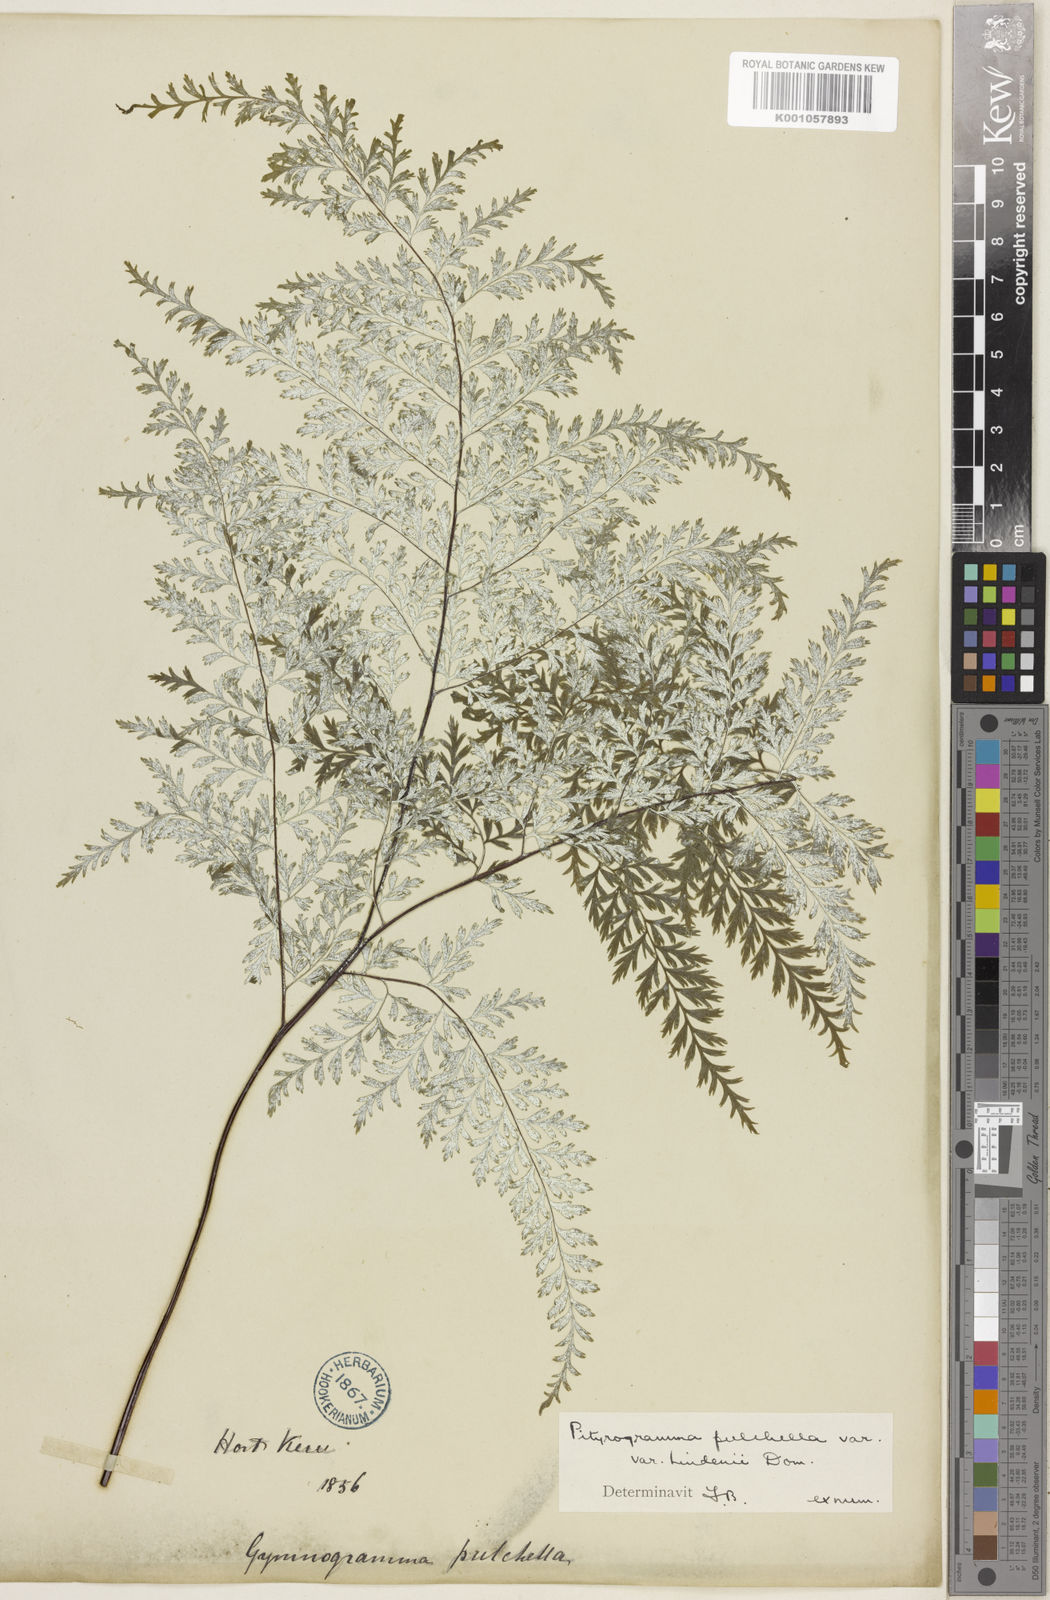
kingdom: Plantae
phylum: Tracheophyta
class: Polypodiopsida
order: Polypodiales
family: Pteridaceae
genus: Pityrogramma
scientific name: Pityrogramma pulchella
